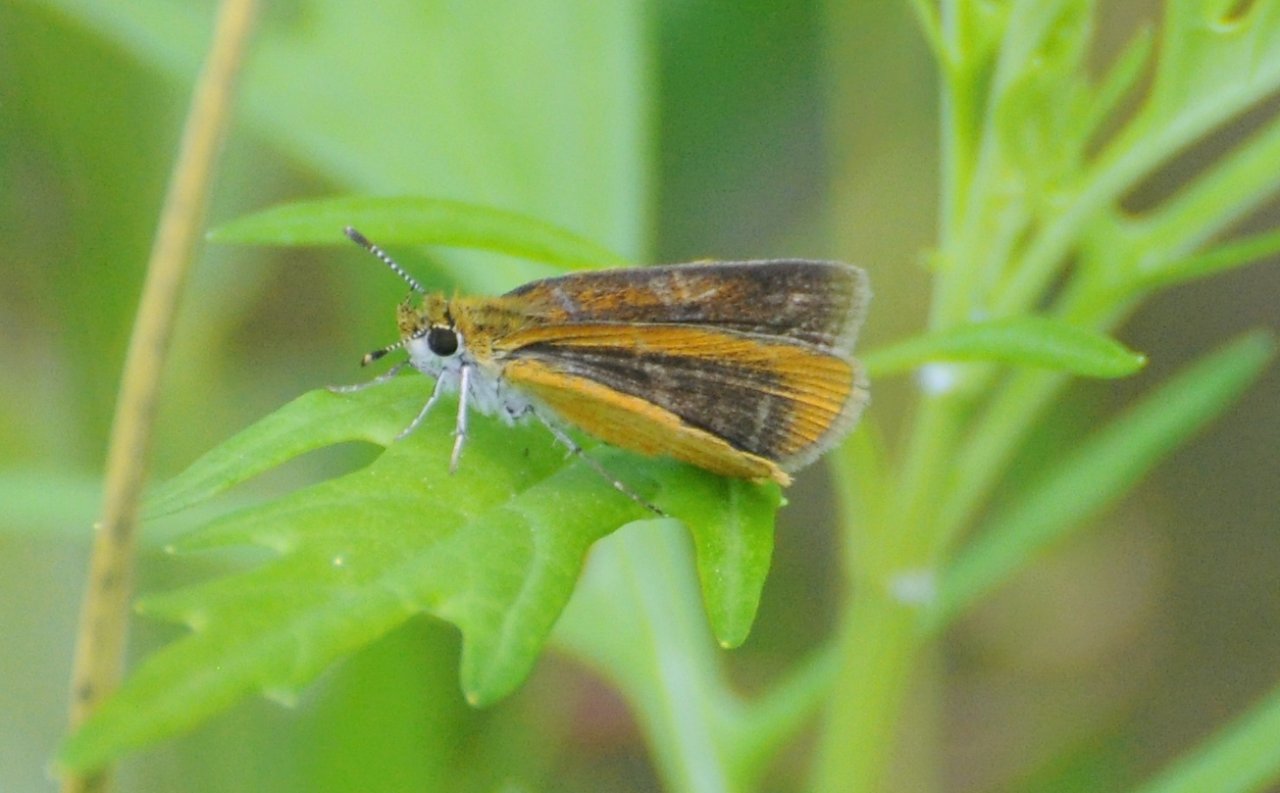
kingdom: Animalia
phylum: Arthropoda
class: Insecta
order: Lepidoptera
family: Hesperiidae
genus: Ancyloxypha
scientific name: Ancyloxypha numitor
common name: Least Skipper
